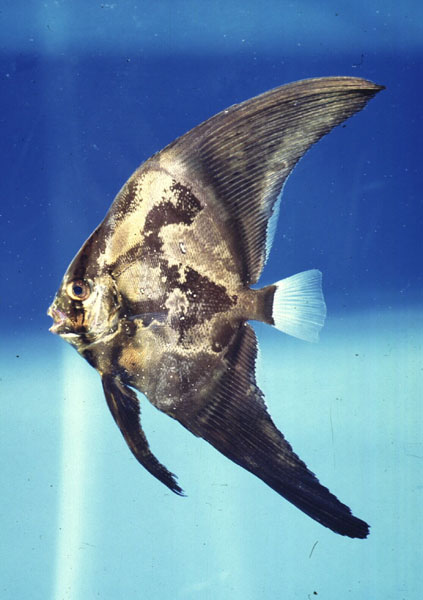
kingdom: Animalia
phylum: Chordata
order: Perciformes
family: Ephippidae
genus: Platax
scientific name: Platax orbicularis
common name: Batfish
